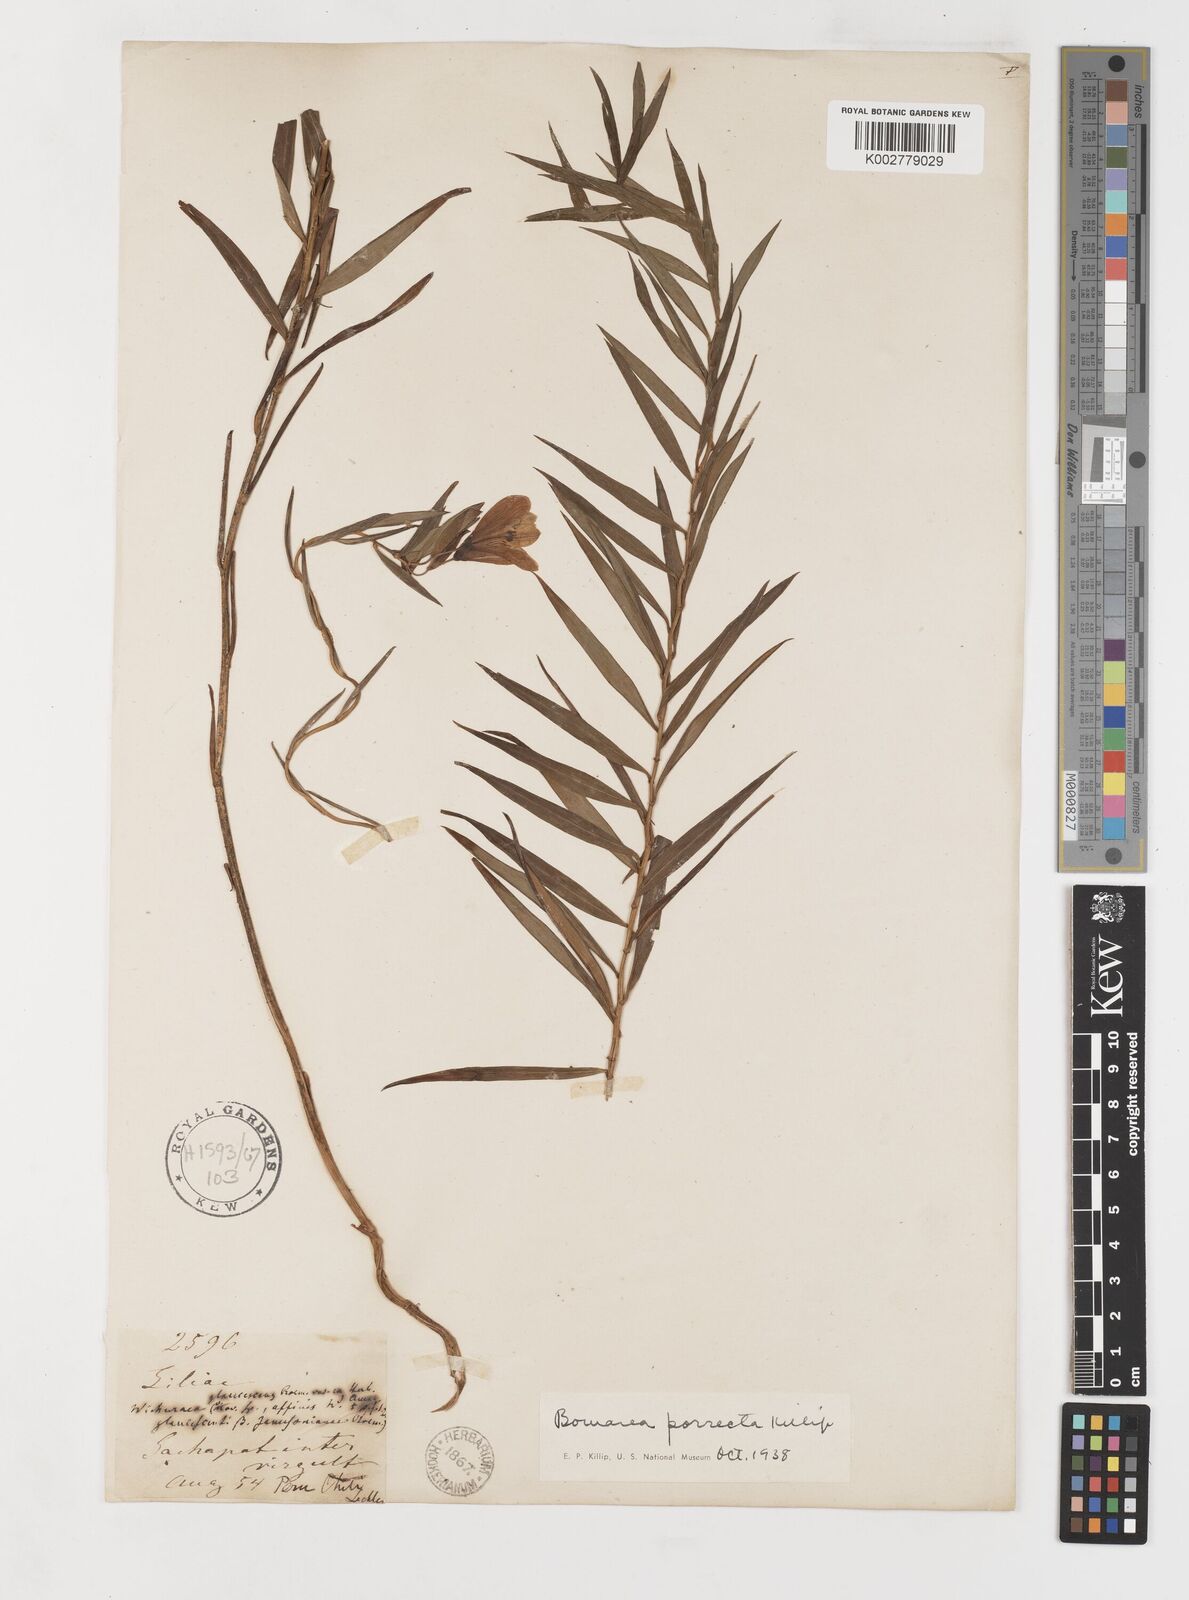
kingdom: Plantae
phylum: Tracheophyta
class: Liliopsida
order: Liliales
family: Alstroemeriaceae
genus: Bomarea
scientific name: Bomarea porrecta
